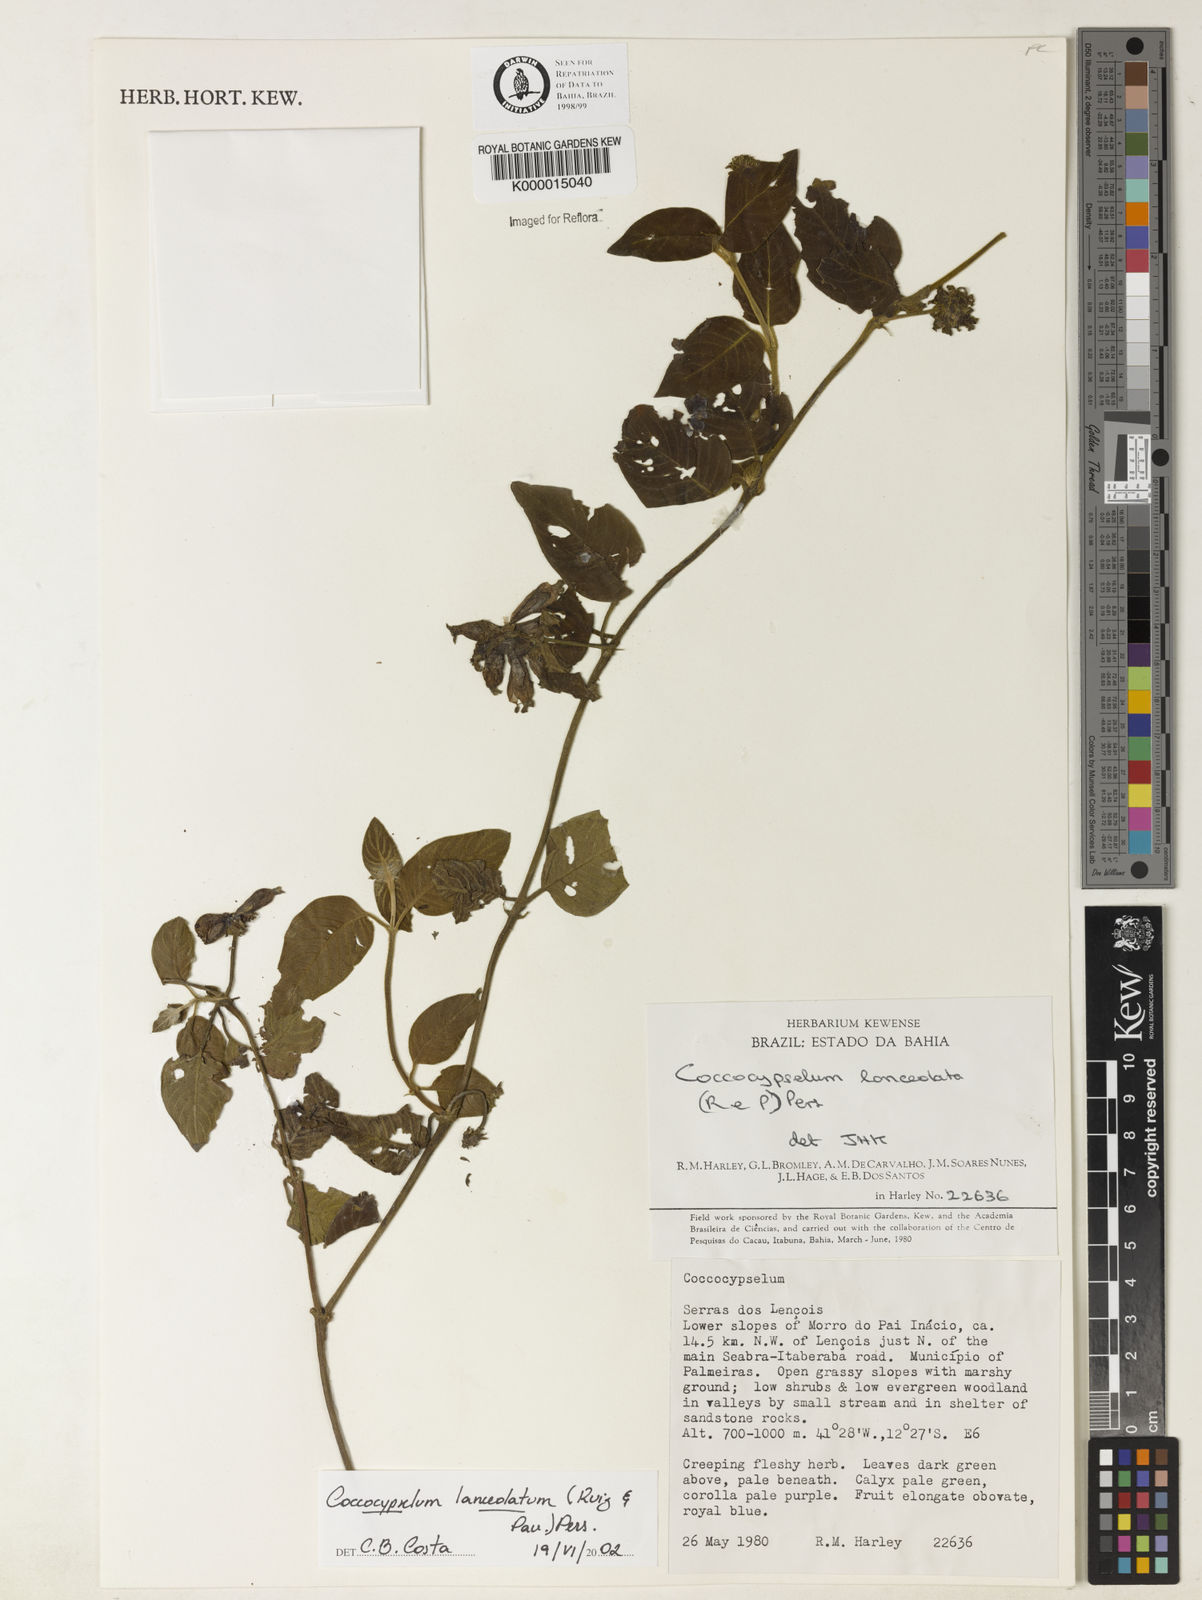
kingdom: Plantae
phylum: Tracheophyta
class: Magnoliopsida
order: Gentianales
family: Rubiaceae
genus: Coccocypselum
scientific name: Coccocypselum lanceolatum
